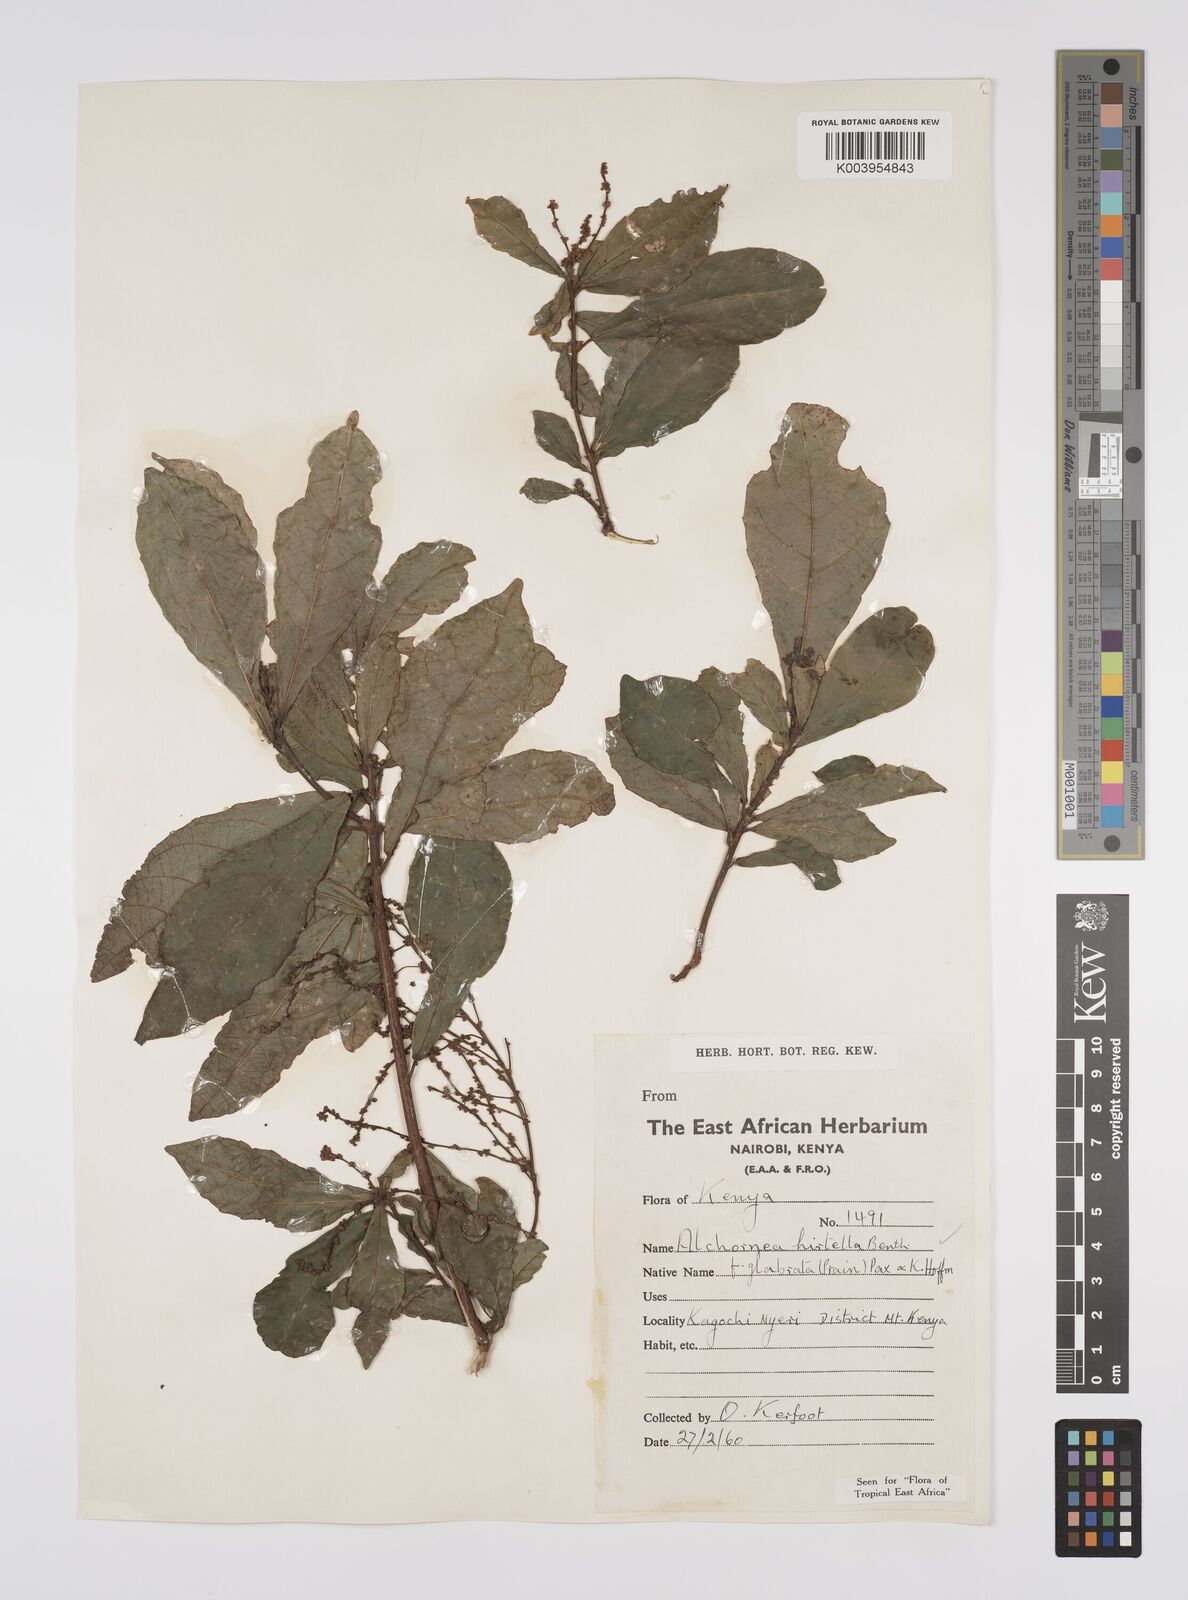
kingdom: Plantae
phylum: Tracheophyta
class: Magnoliopsida
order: Malpighiales
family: Euphorbiaceae
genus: Alchornea
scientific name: Alchornea hirtella
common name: Forest bead-string
